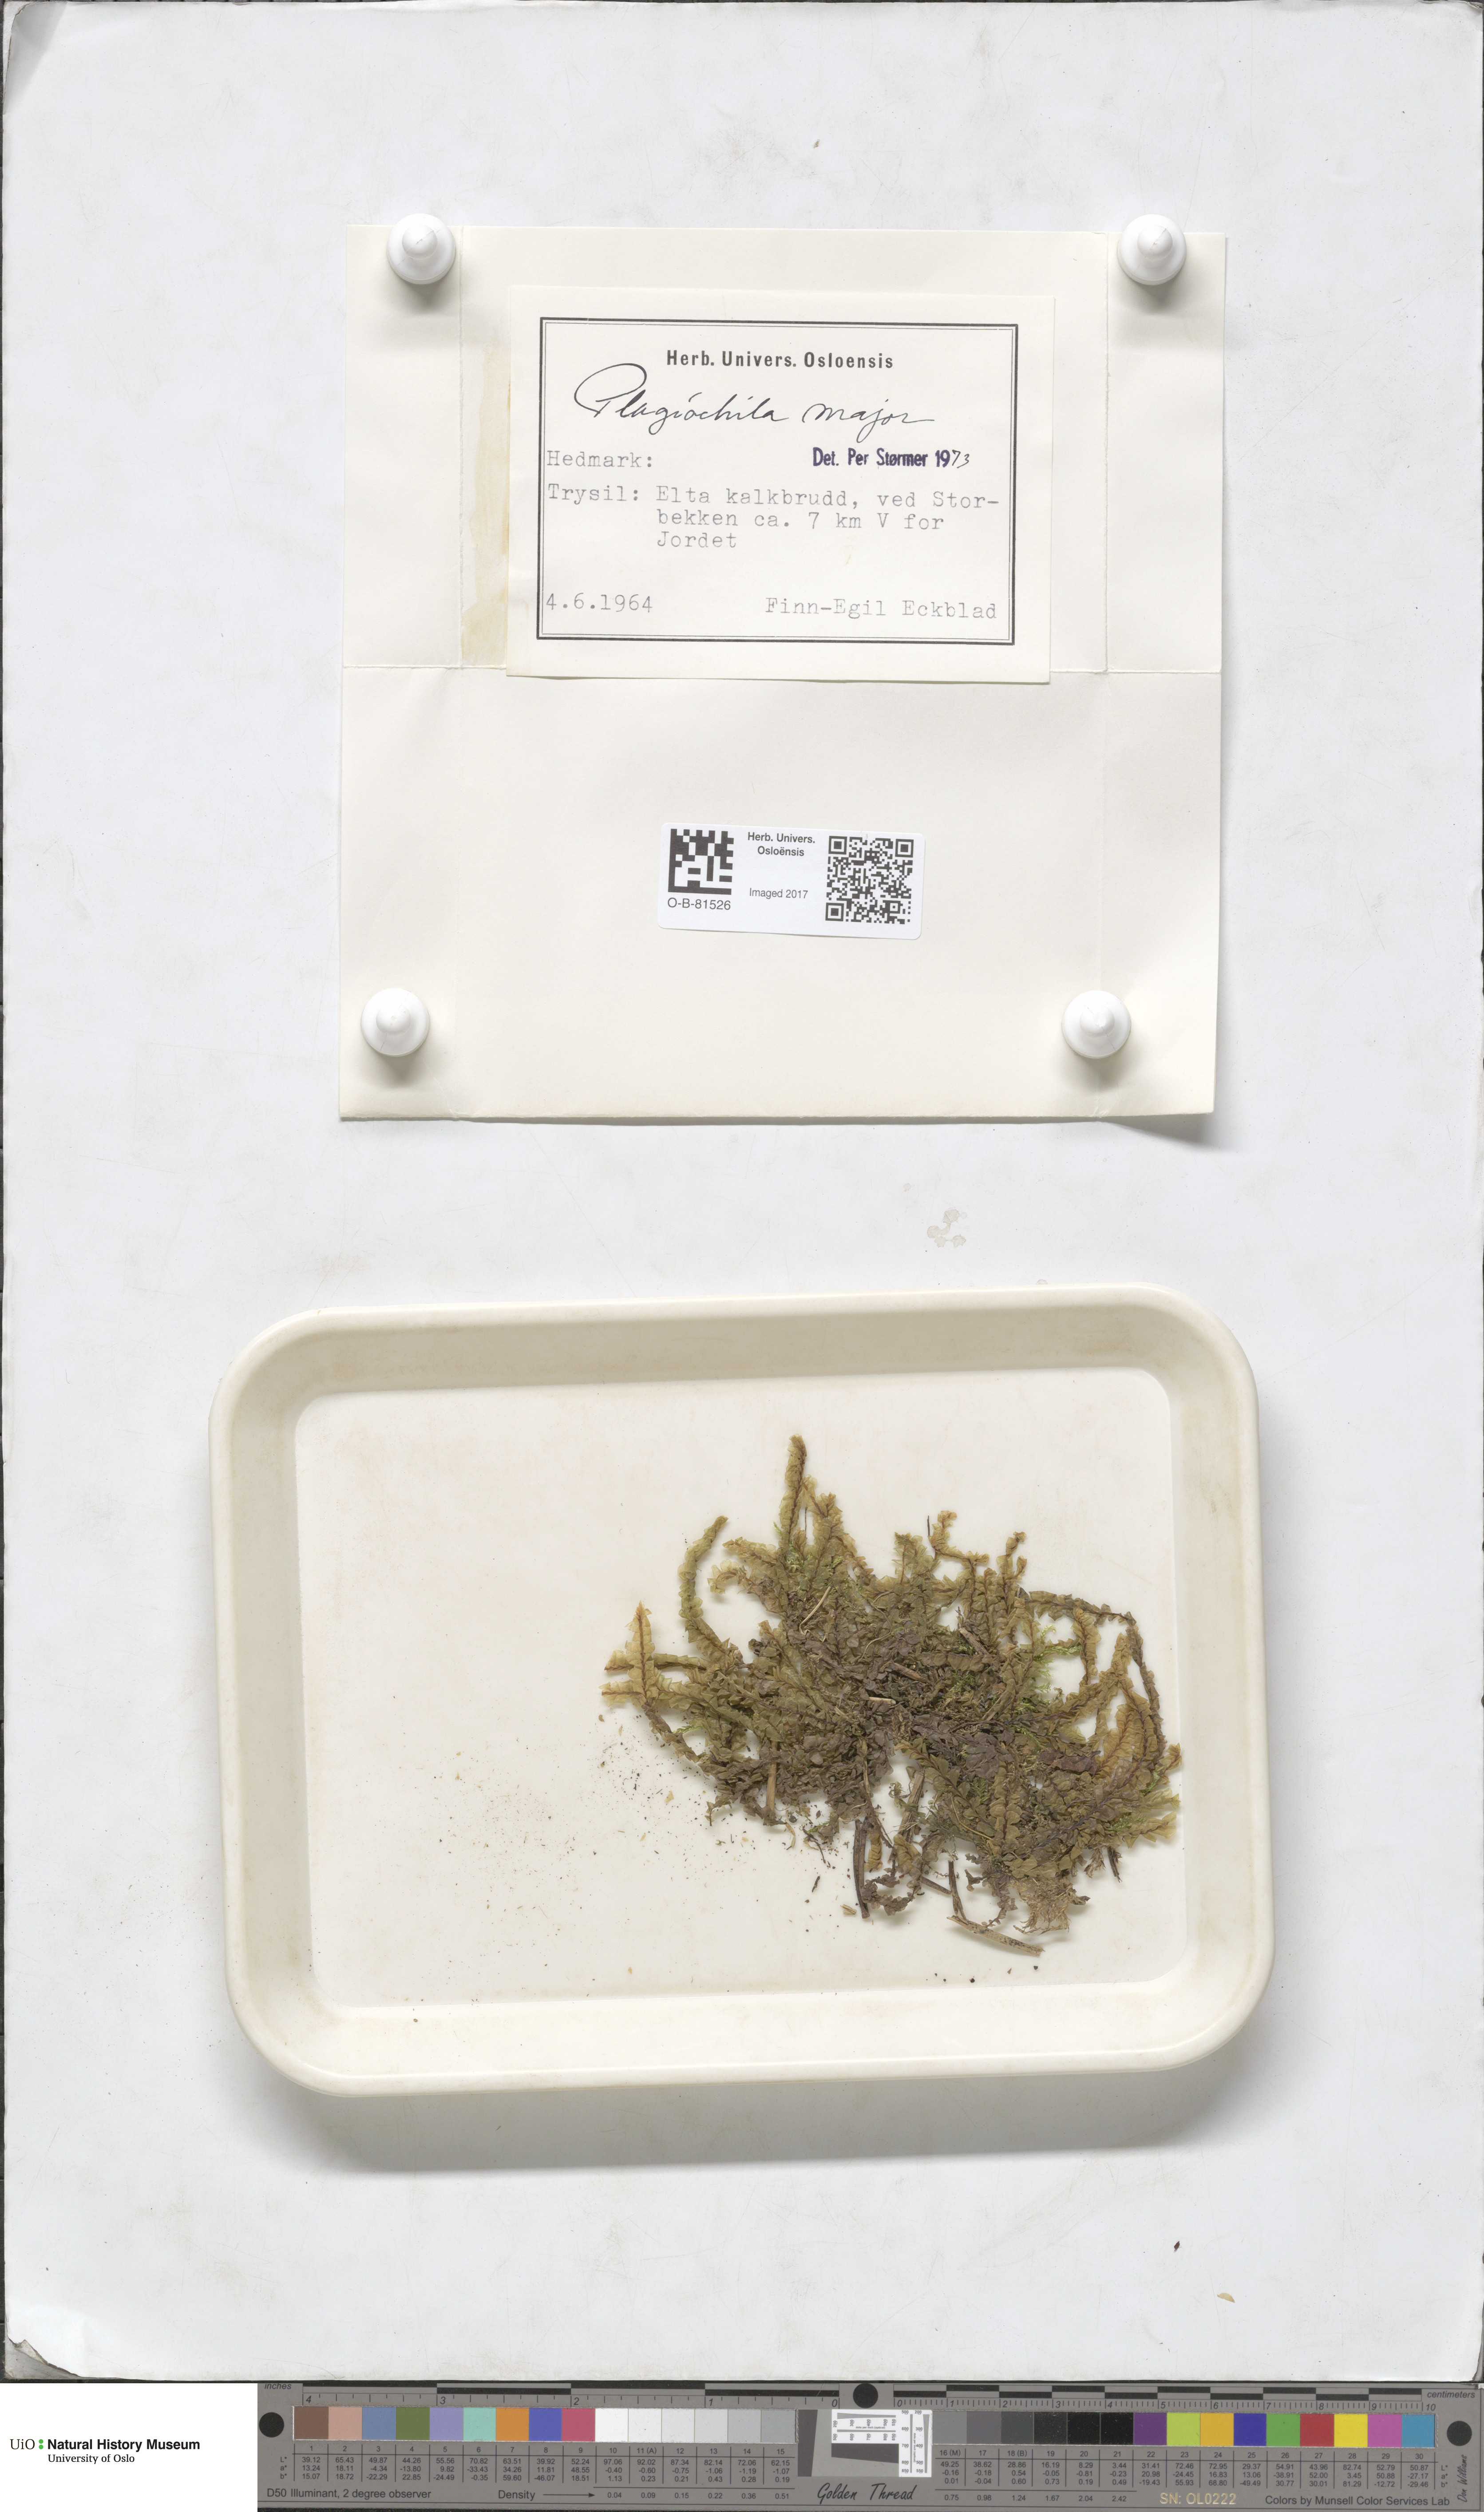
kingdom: Plantae
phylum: Marchantiophyta
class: Jungermanniopsida
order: Jungermanniales
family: Plagiochilaceae
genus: Plagiochila
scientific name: Plagiochila asplenioides
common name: Greater featherwort
